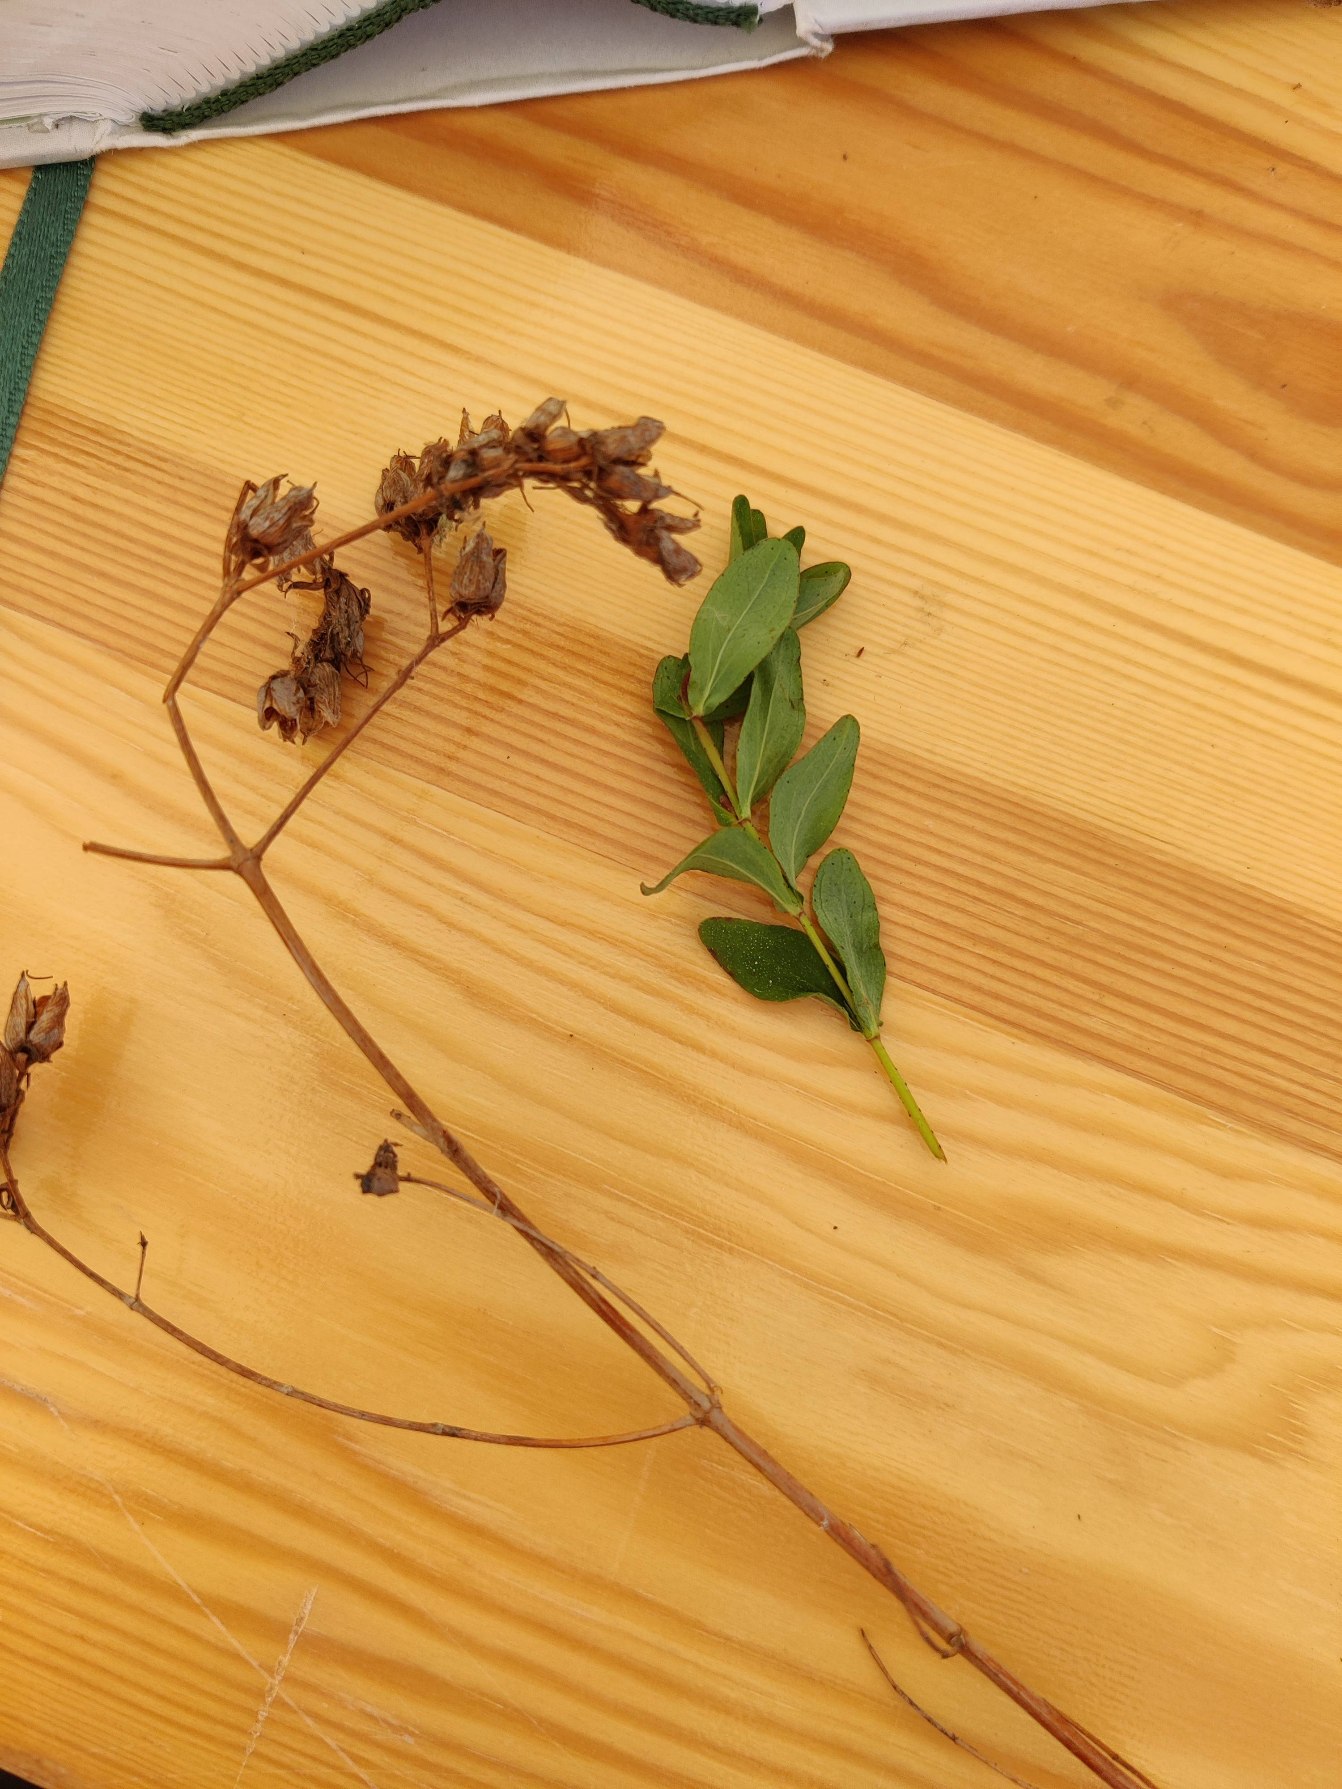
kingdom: Plantae
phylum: Tracheophyta
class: Magnoliopsida
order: Malpighiales
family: Hypericaceae
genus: Hypericum
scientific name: Hypericum perforatum
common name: Prikbladet perikon
